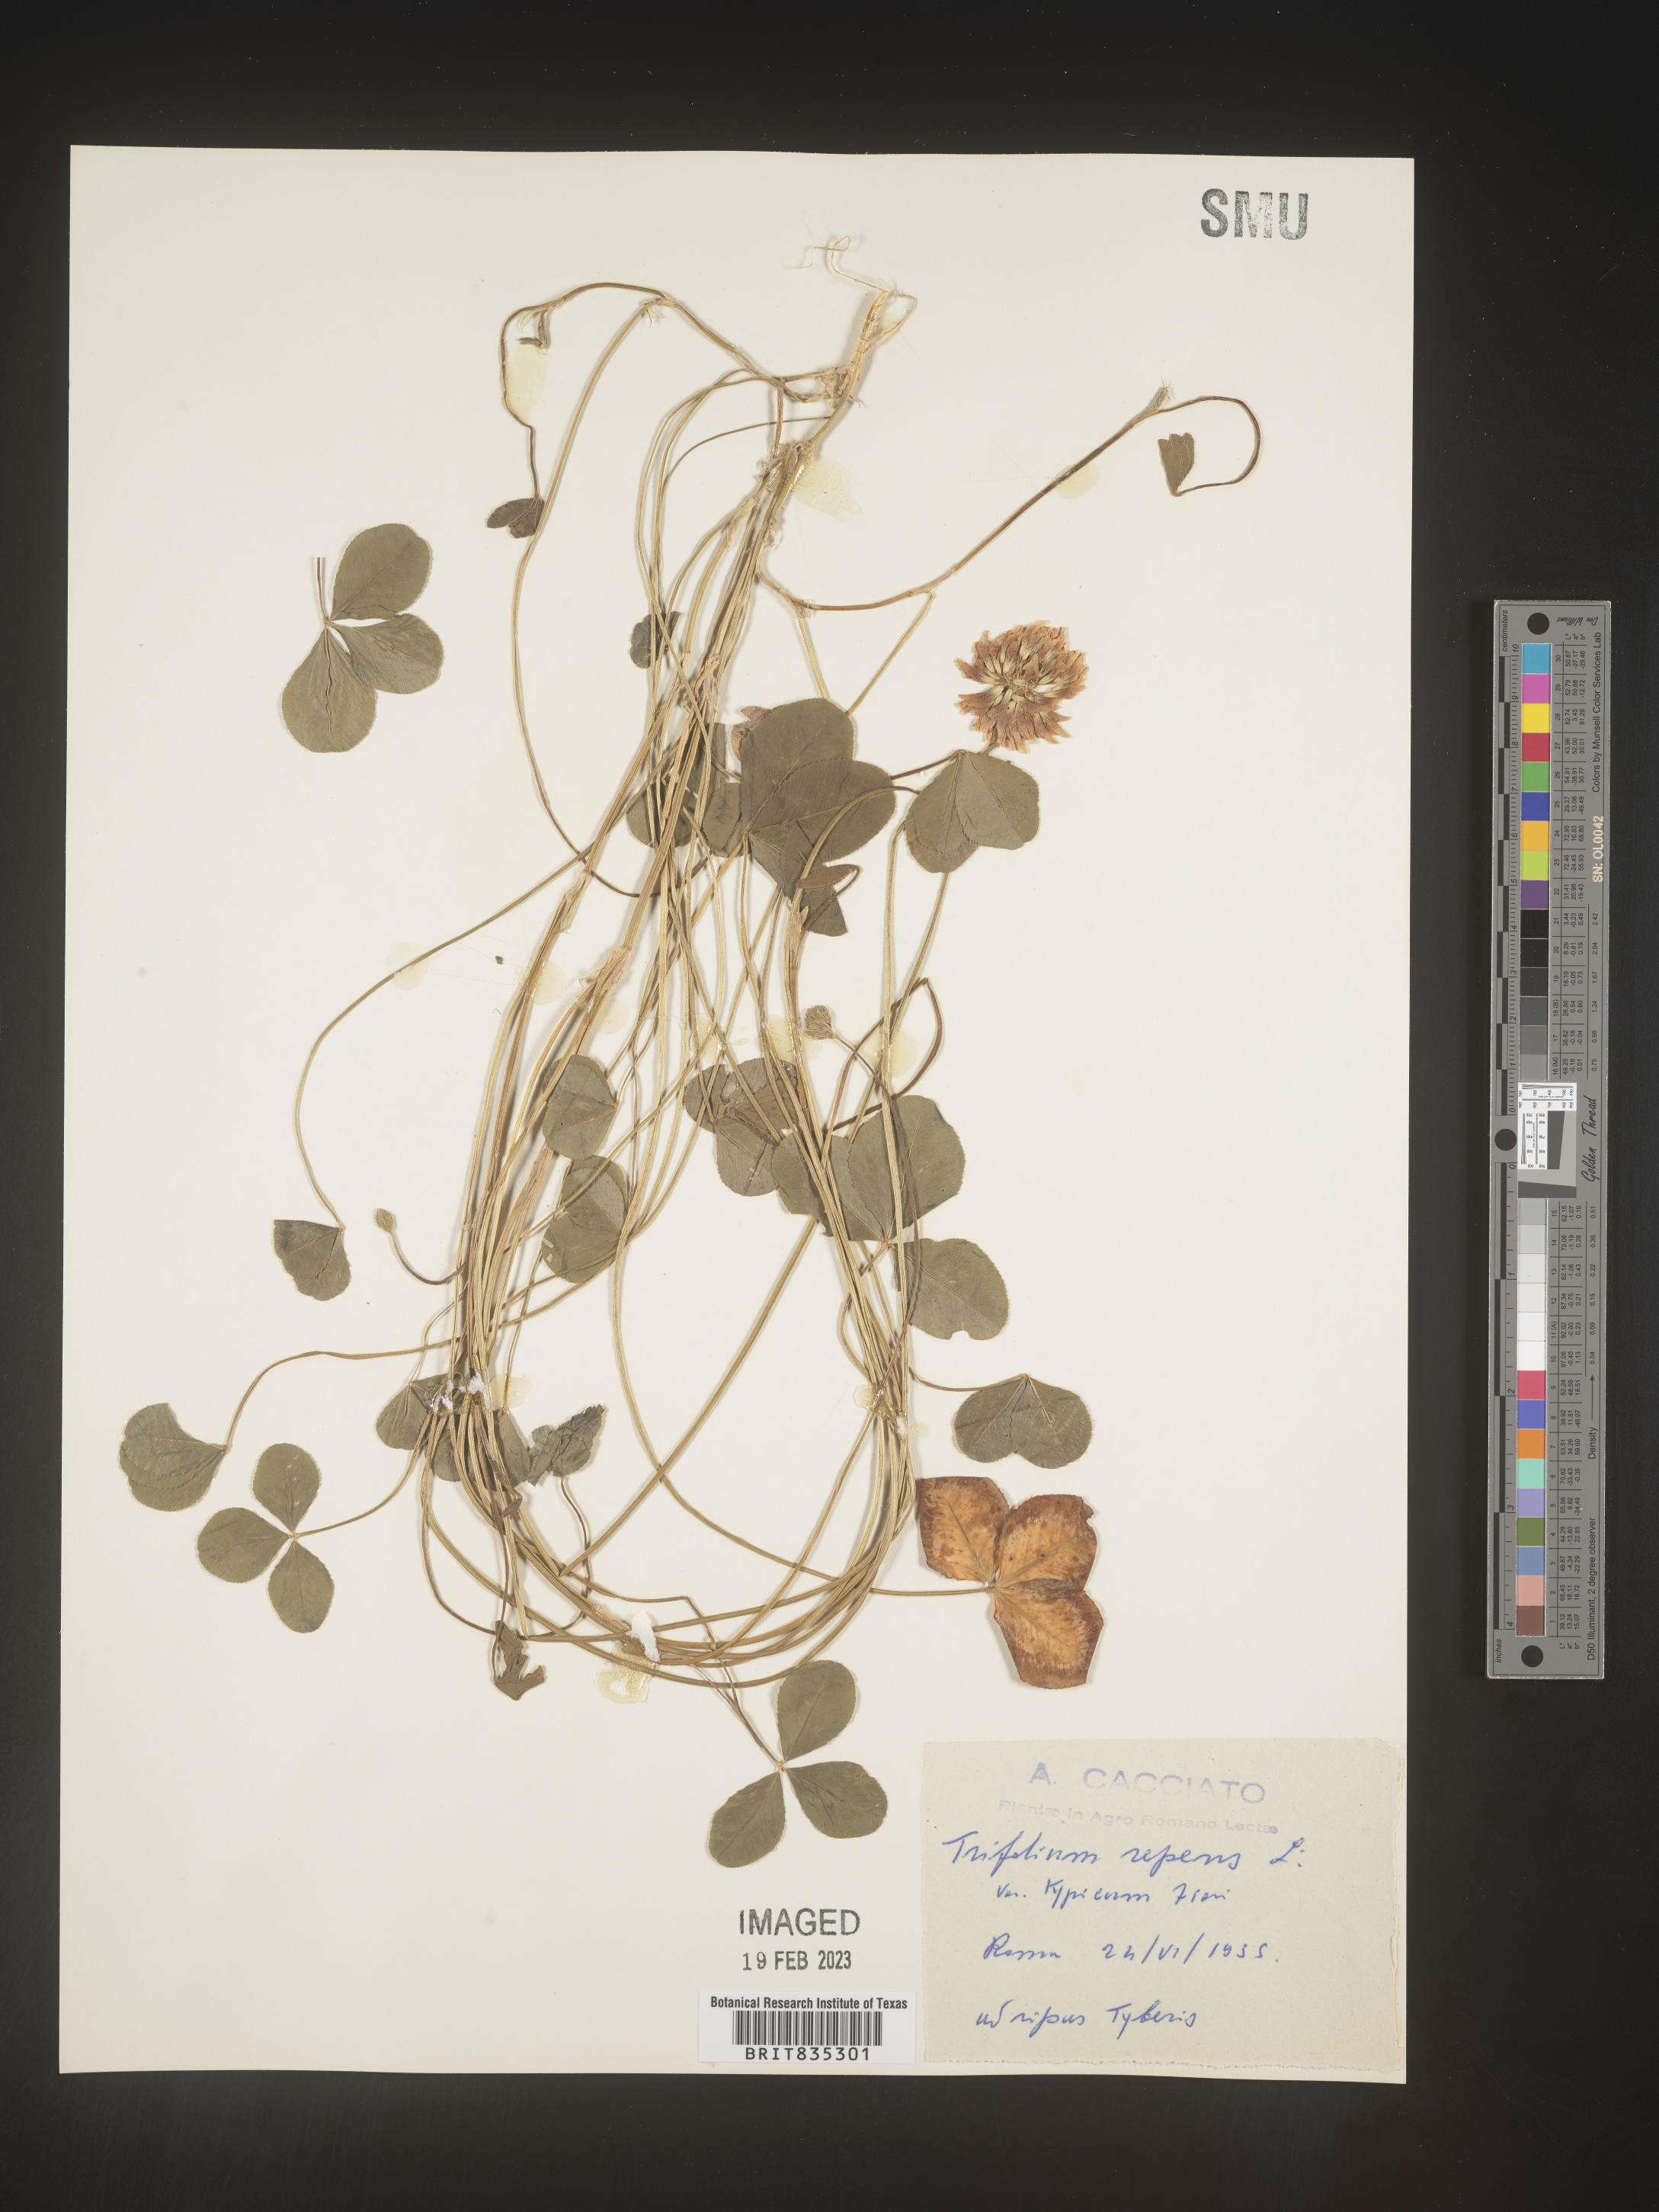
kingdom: Plantae
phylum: Tracheophyta
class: Magnoliopsida
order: Fabales
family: Fabaceae
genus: Trifolium
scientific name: Trifolium
